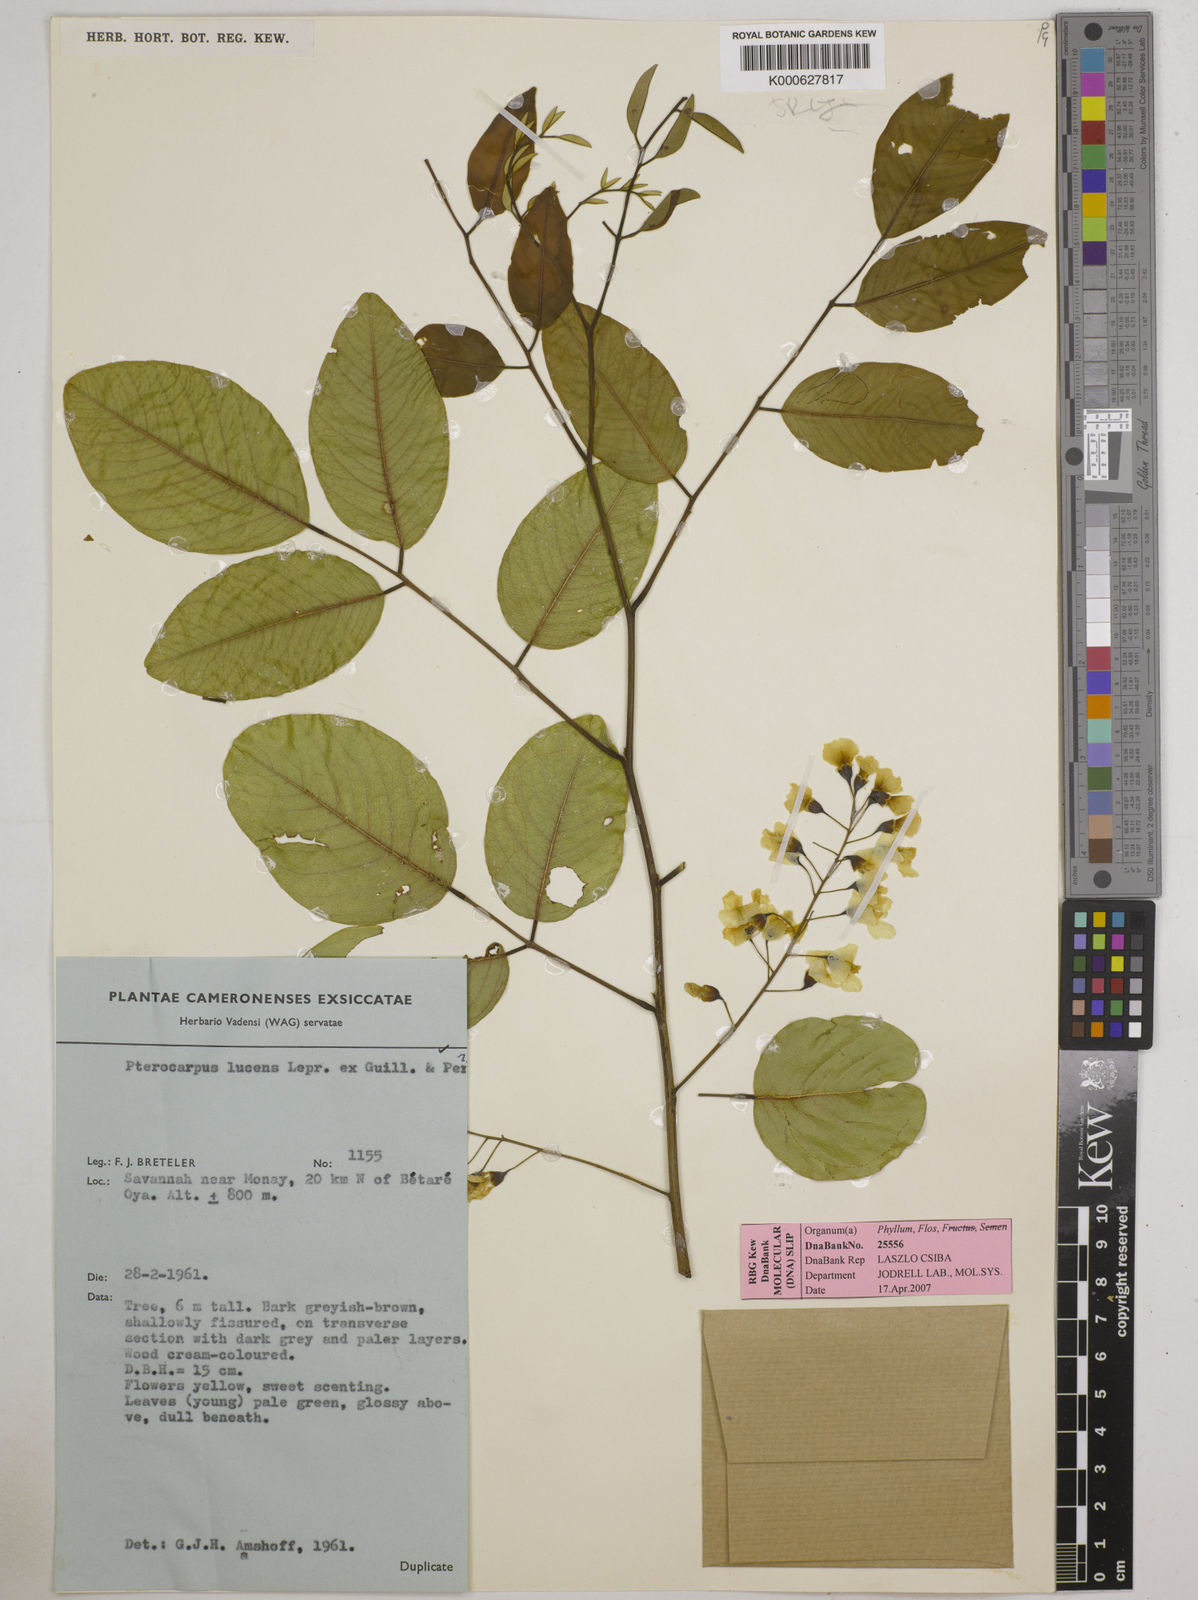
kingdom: Plantae
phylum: Tracheophyta
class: Magnoliopsida
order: Fabales
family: Fabaceae
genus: Pterocarpus
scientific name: Pterocarpus lucens
